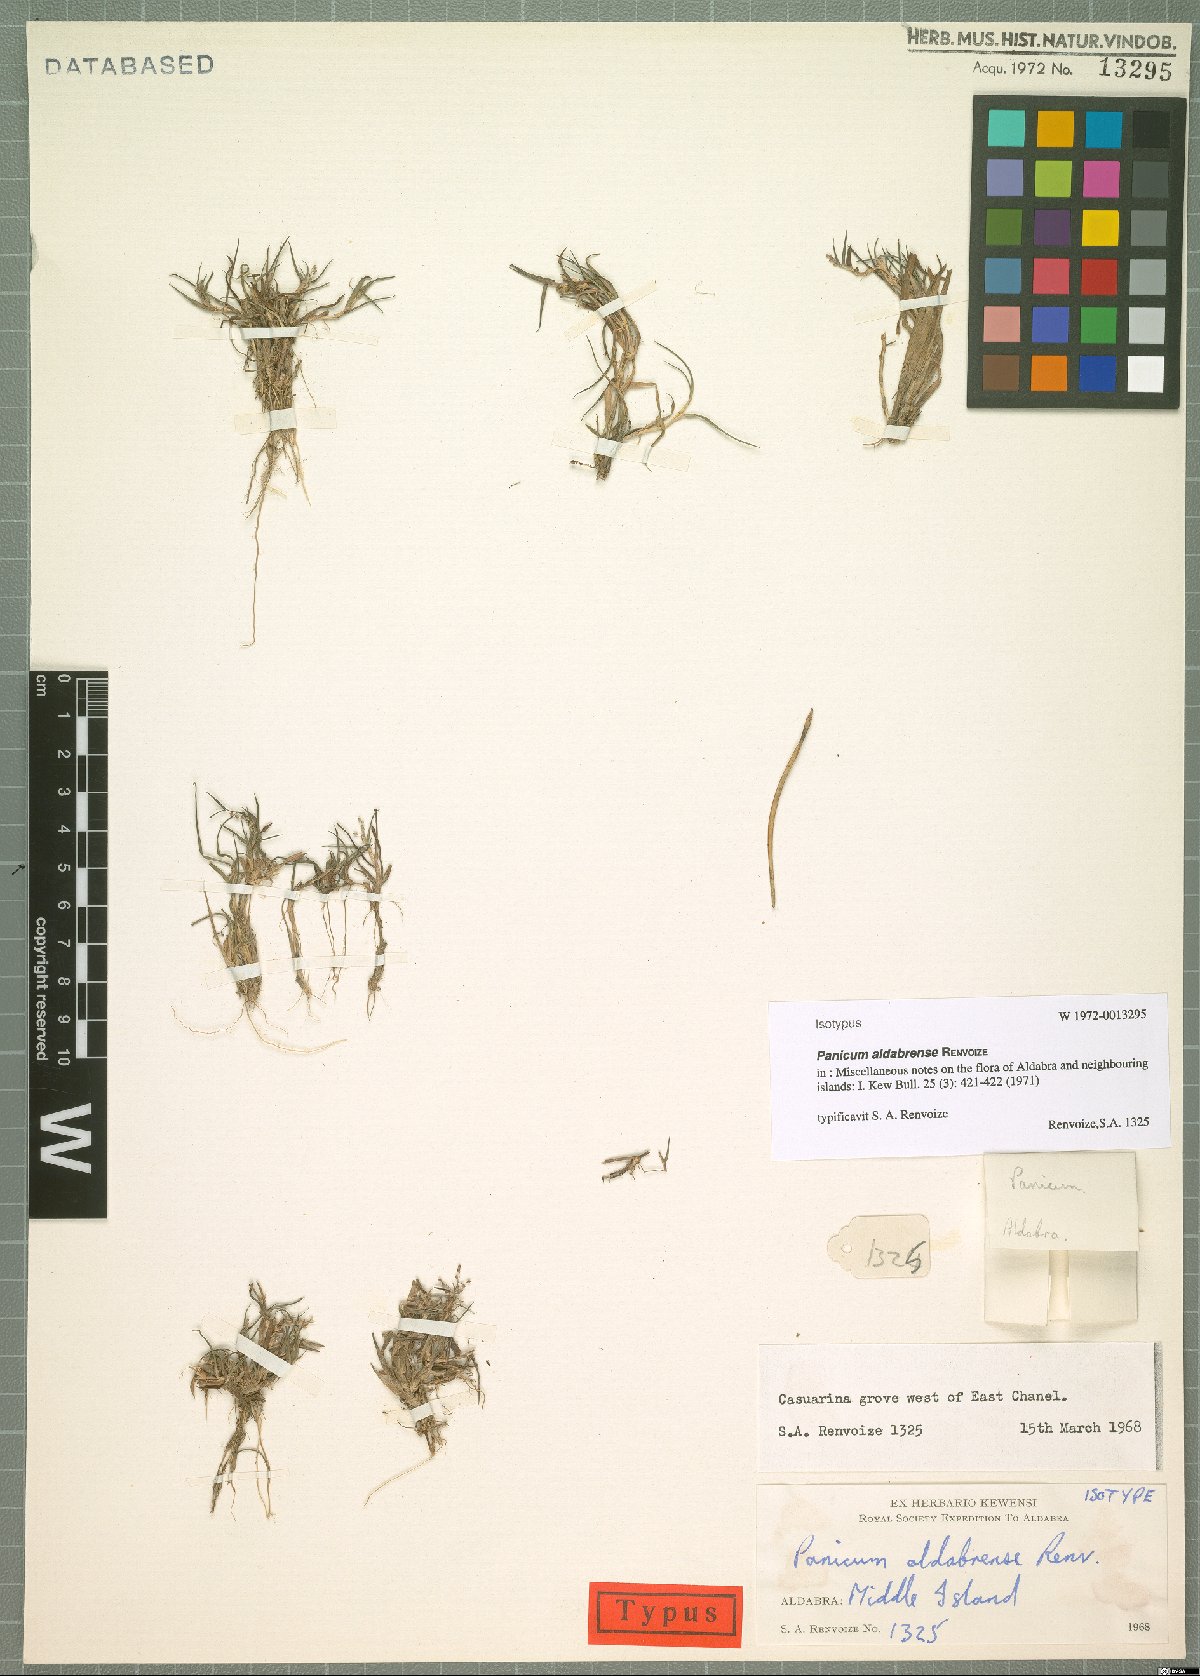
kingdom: Plantae
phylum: Tracheophyta
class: Liliopsida
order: Poales
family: Poaceae
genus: Panicum
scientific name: Panicum aldabrense
